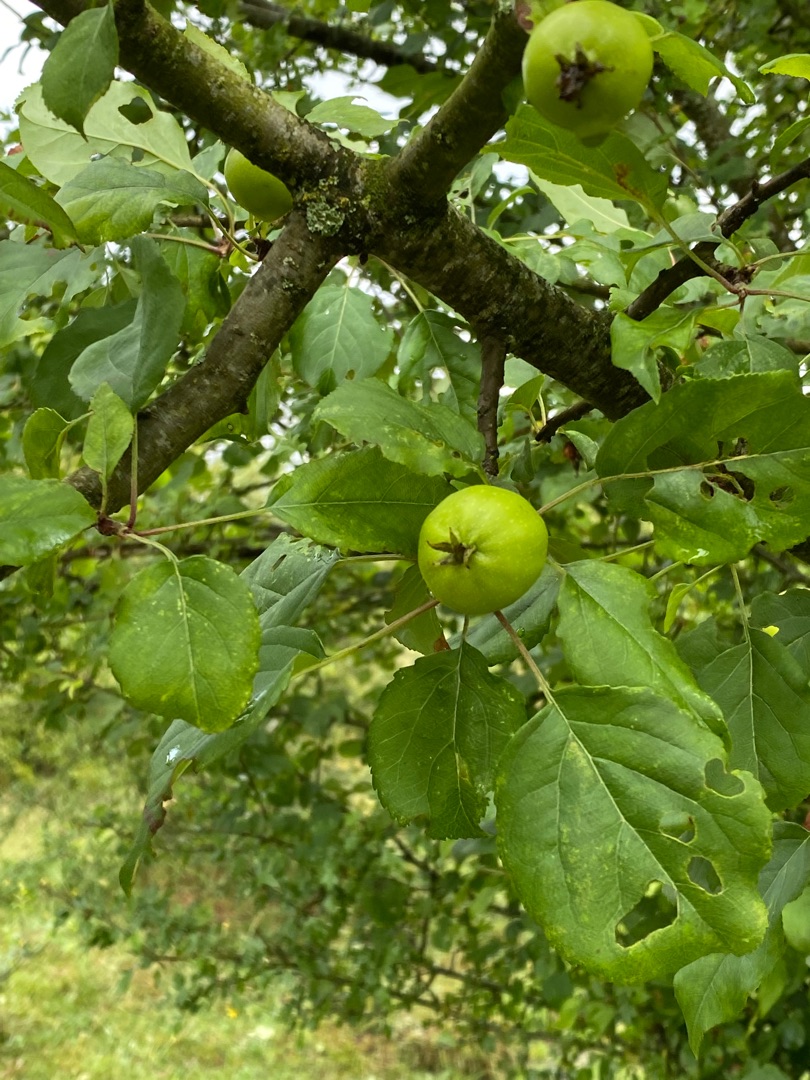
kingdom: Plantae
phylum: Tracheophyta
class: Magnoliopsida
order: Rosales
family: Rosaceae
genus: Malus
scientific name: Malus sylvestris
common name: Skov-æble
